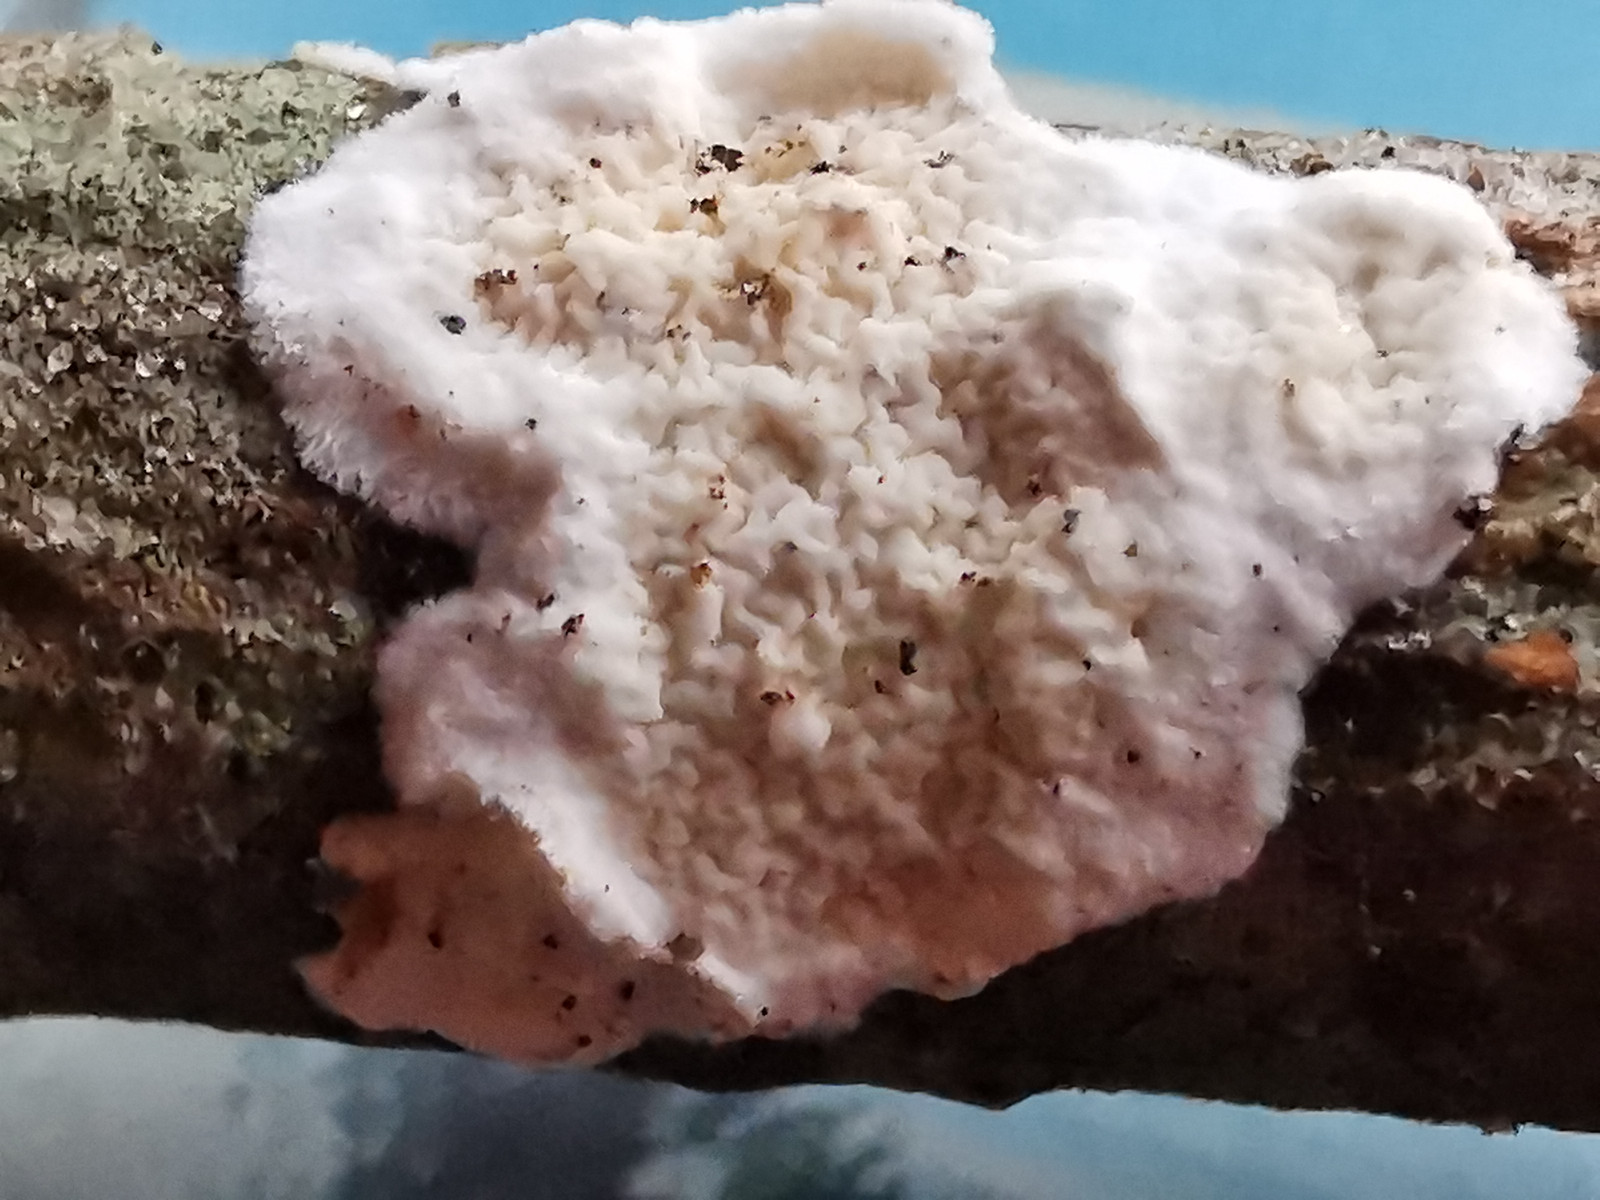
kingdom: Fungi
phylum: Basidiomycota
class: Agaricomycetes
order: Polyporales
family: Irpicaceae
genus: Byssomerulius
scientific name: Byssomerulius corium
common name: læder-åresvamp
